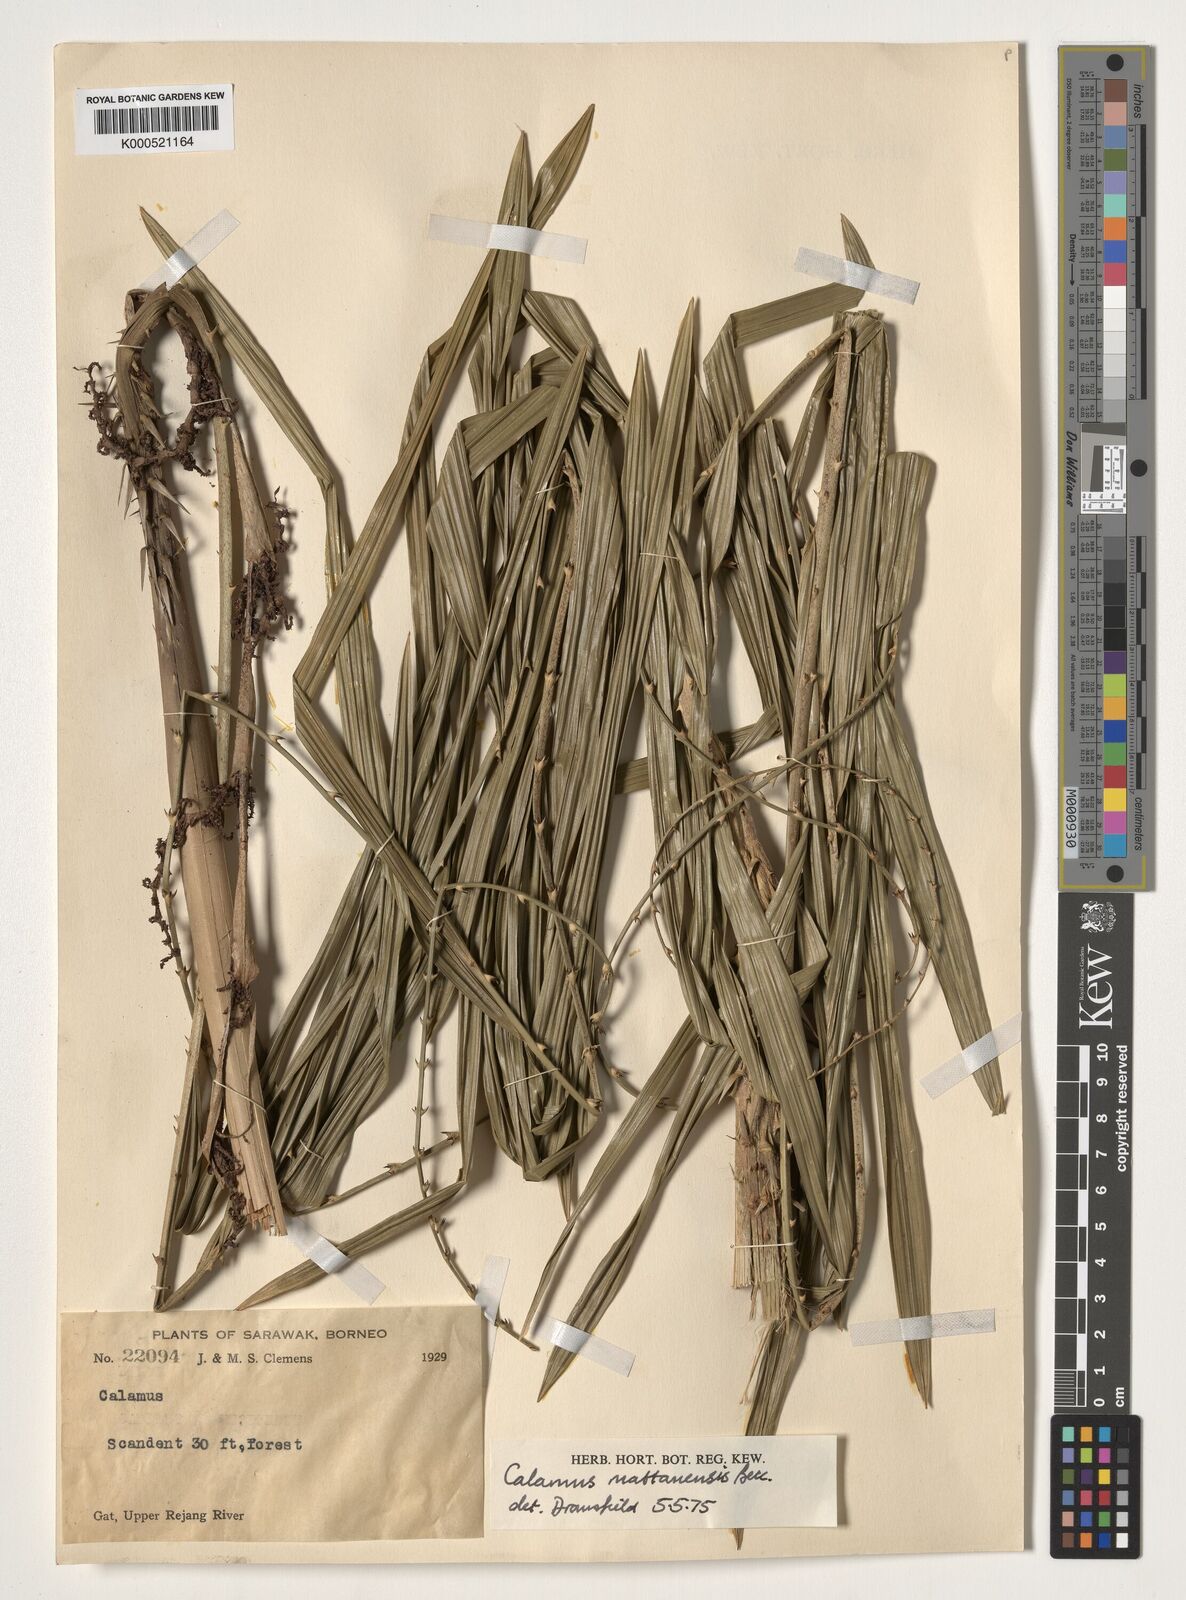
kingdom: Plantae
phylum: Tracheophyta
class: Liliopsida
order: Arecales
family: Arecaceae
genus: Calamus
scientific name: Calamus
